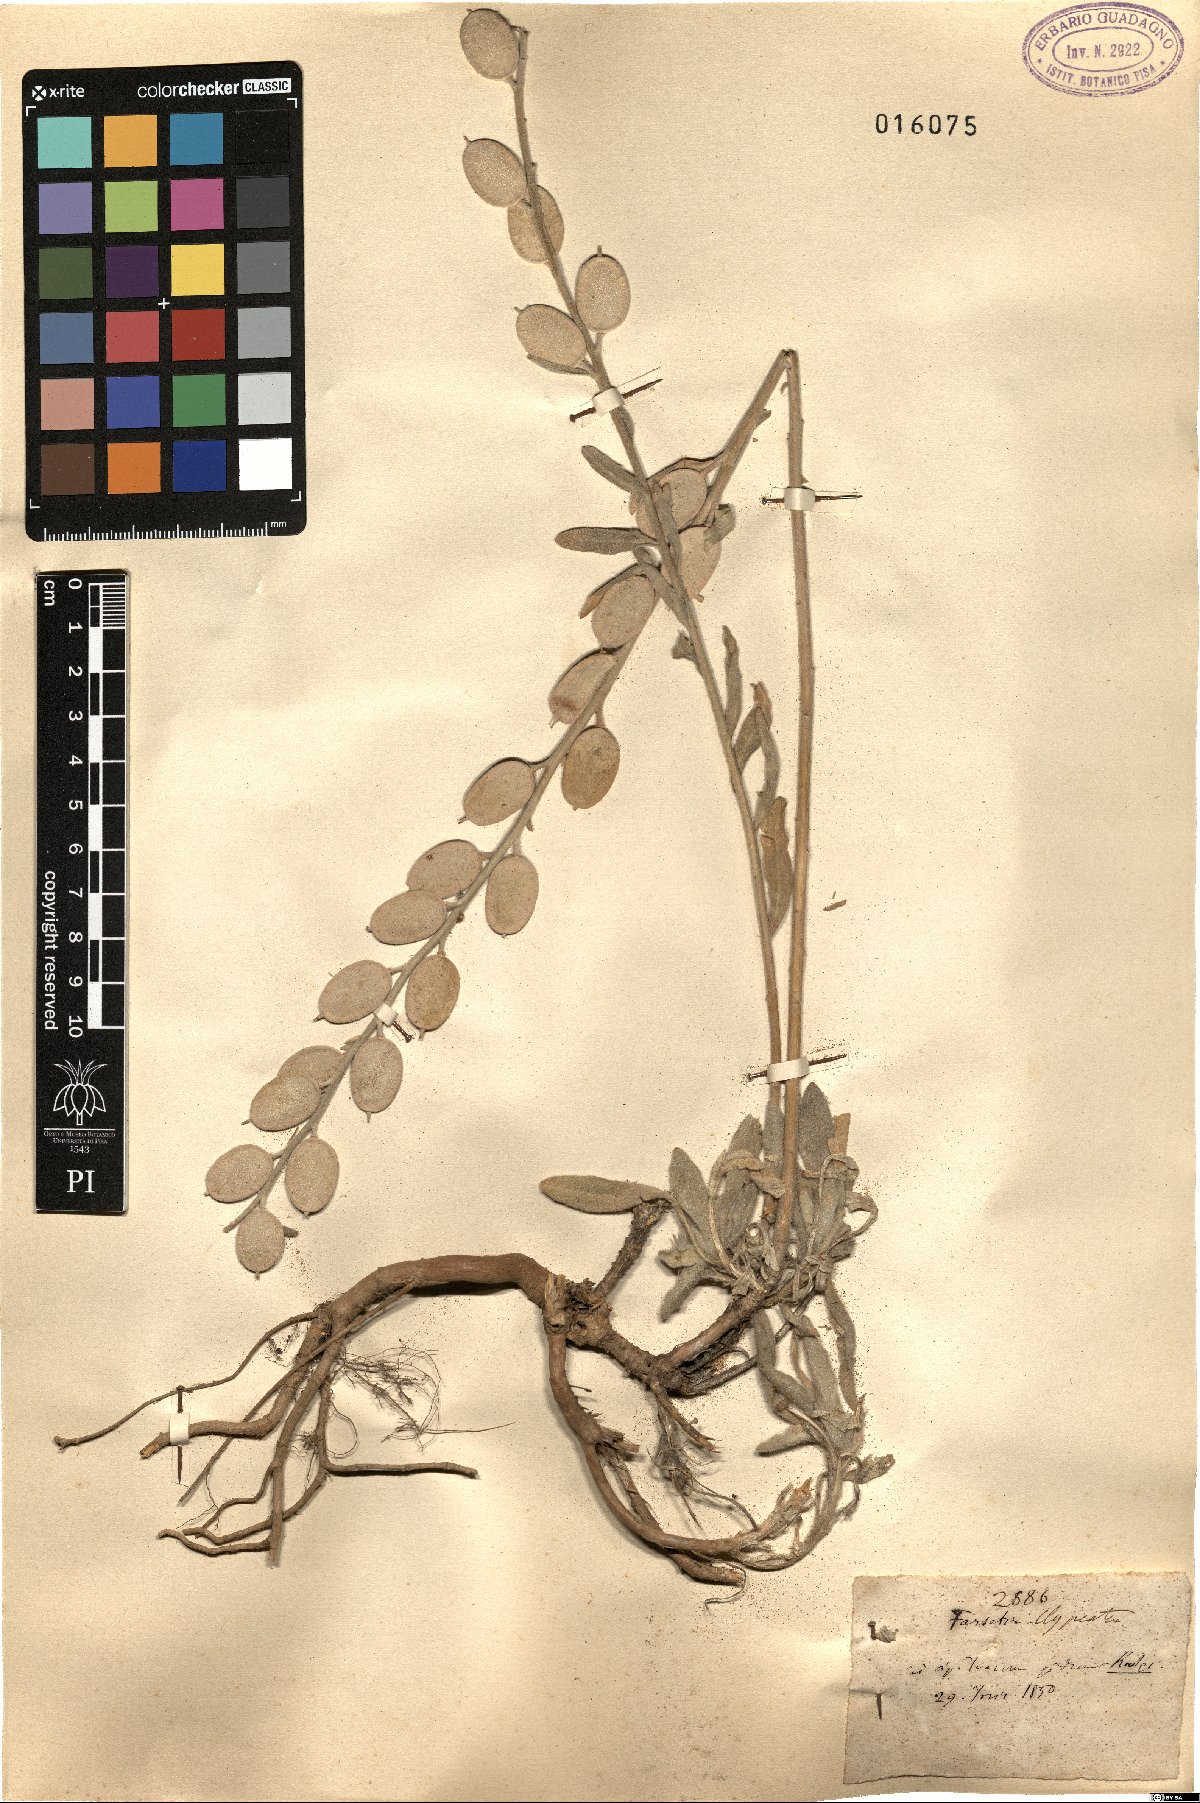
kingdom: Plantae
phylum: Tracheophyta
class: Magnoliopsida
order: Brassicales
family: Brassicaceae
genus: Fibigia
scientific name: Fibigia clypeata
